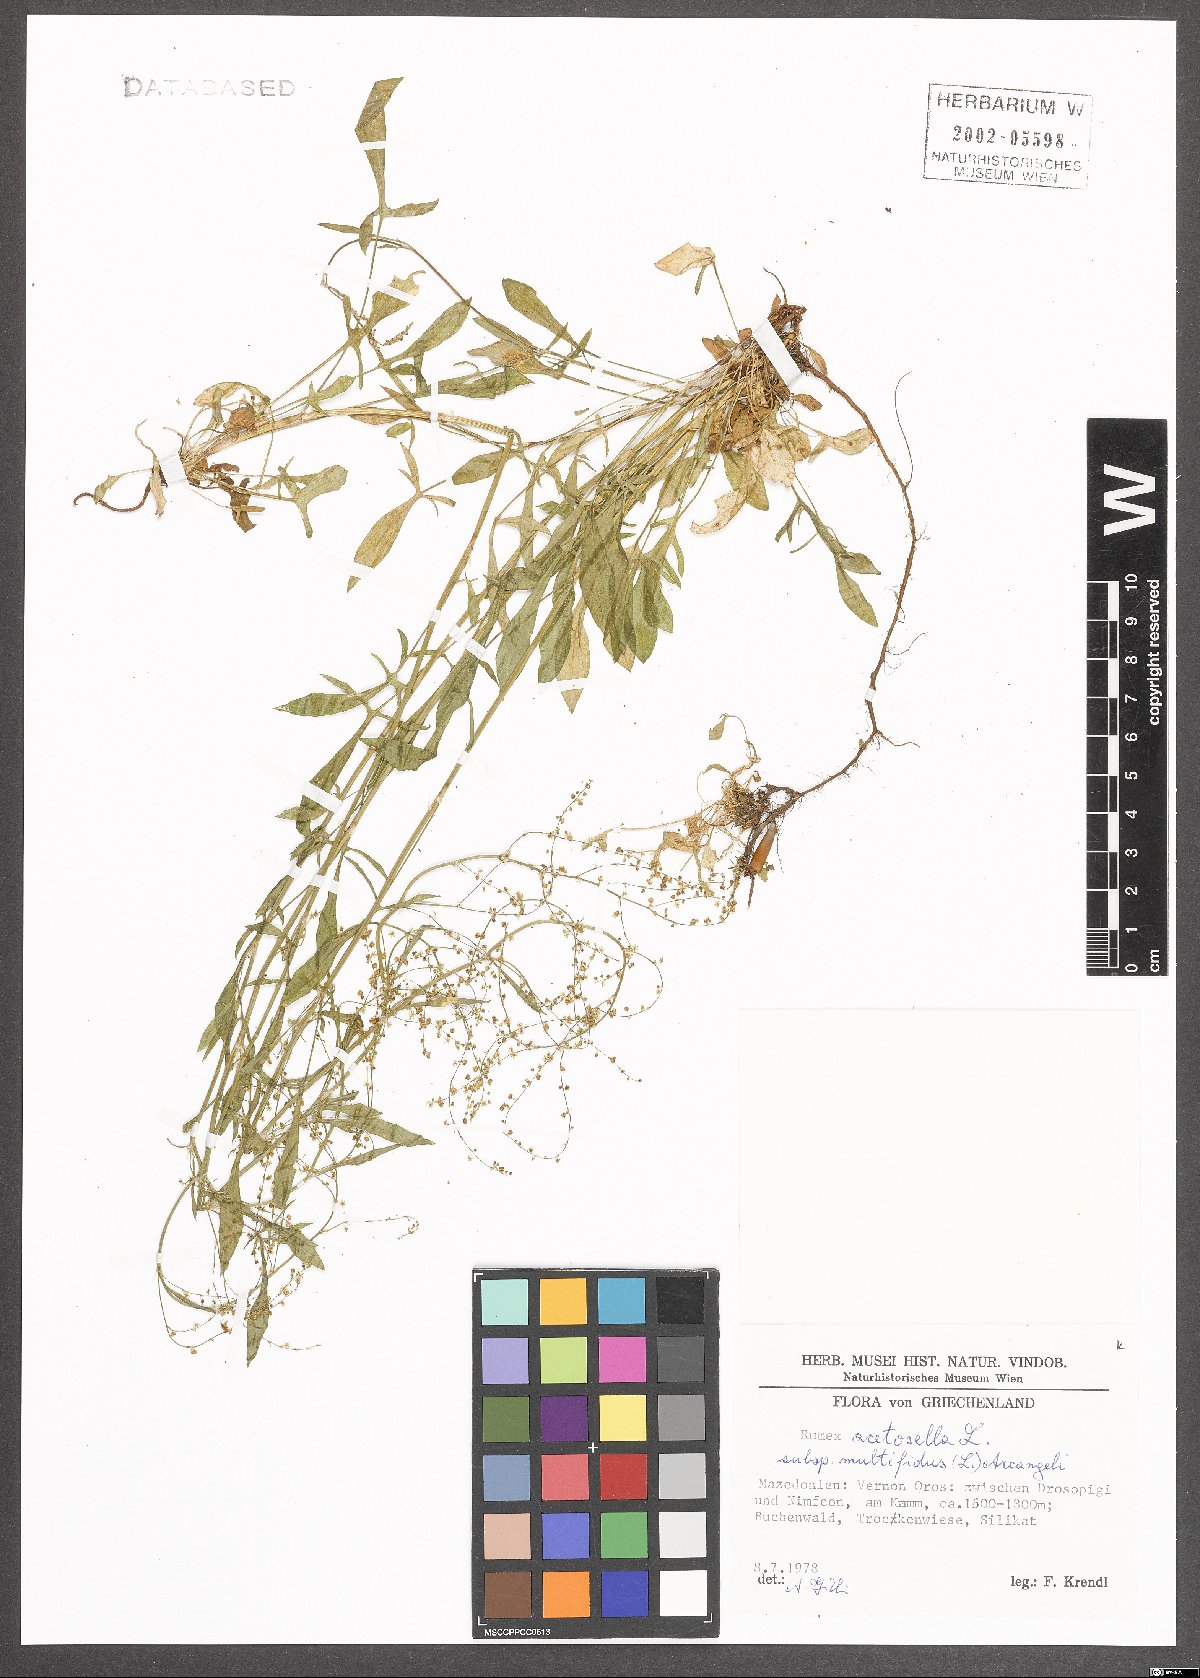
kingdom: Plantae
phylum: Tracheophyta
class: Magnoliopsida
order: Caryophyllales
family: Polygonaceae
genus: Rumex
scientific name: Rumex acetosella
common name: Common sheep sorrel
